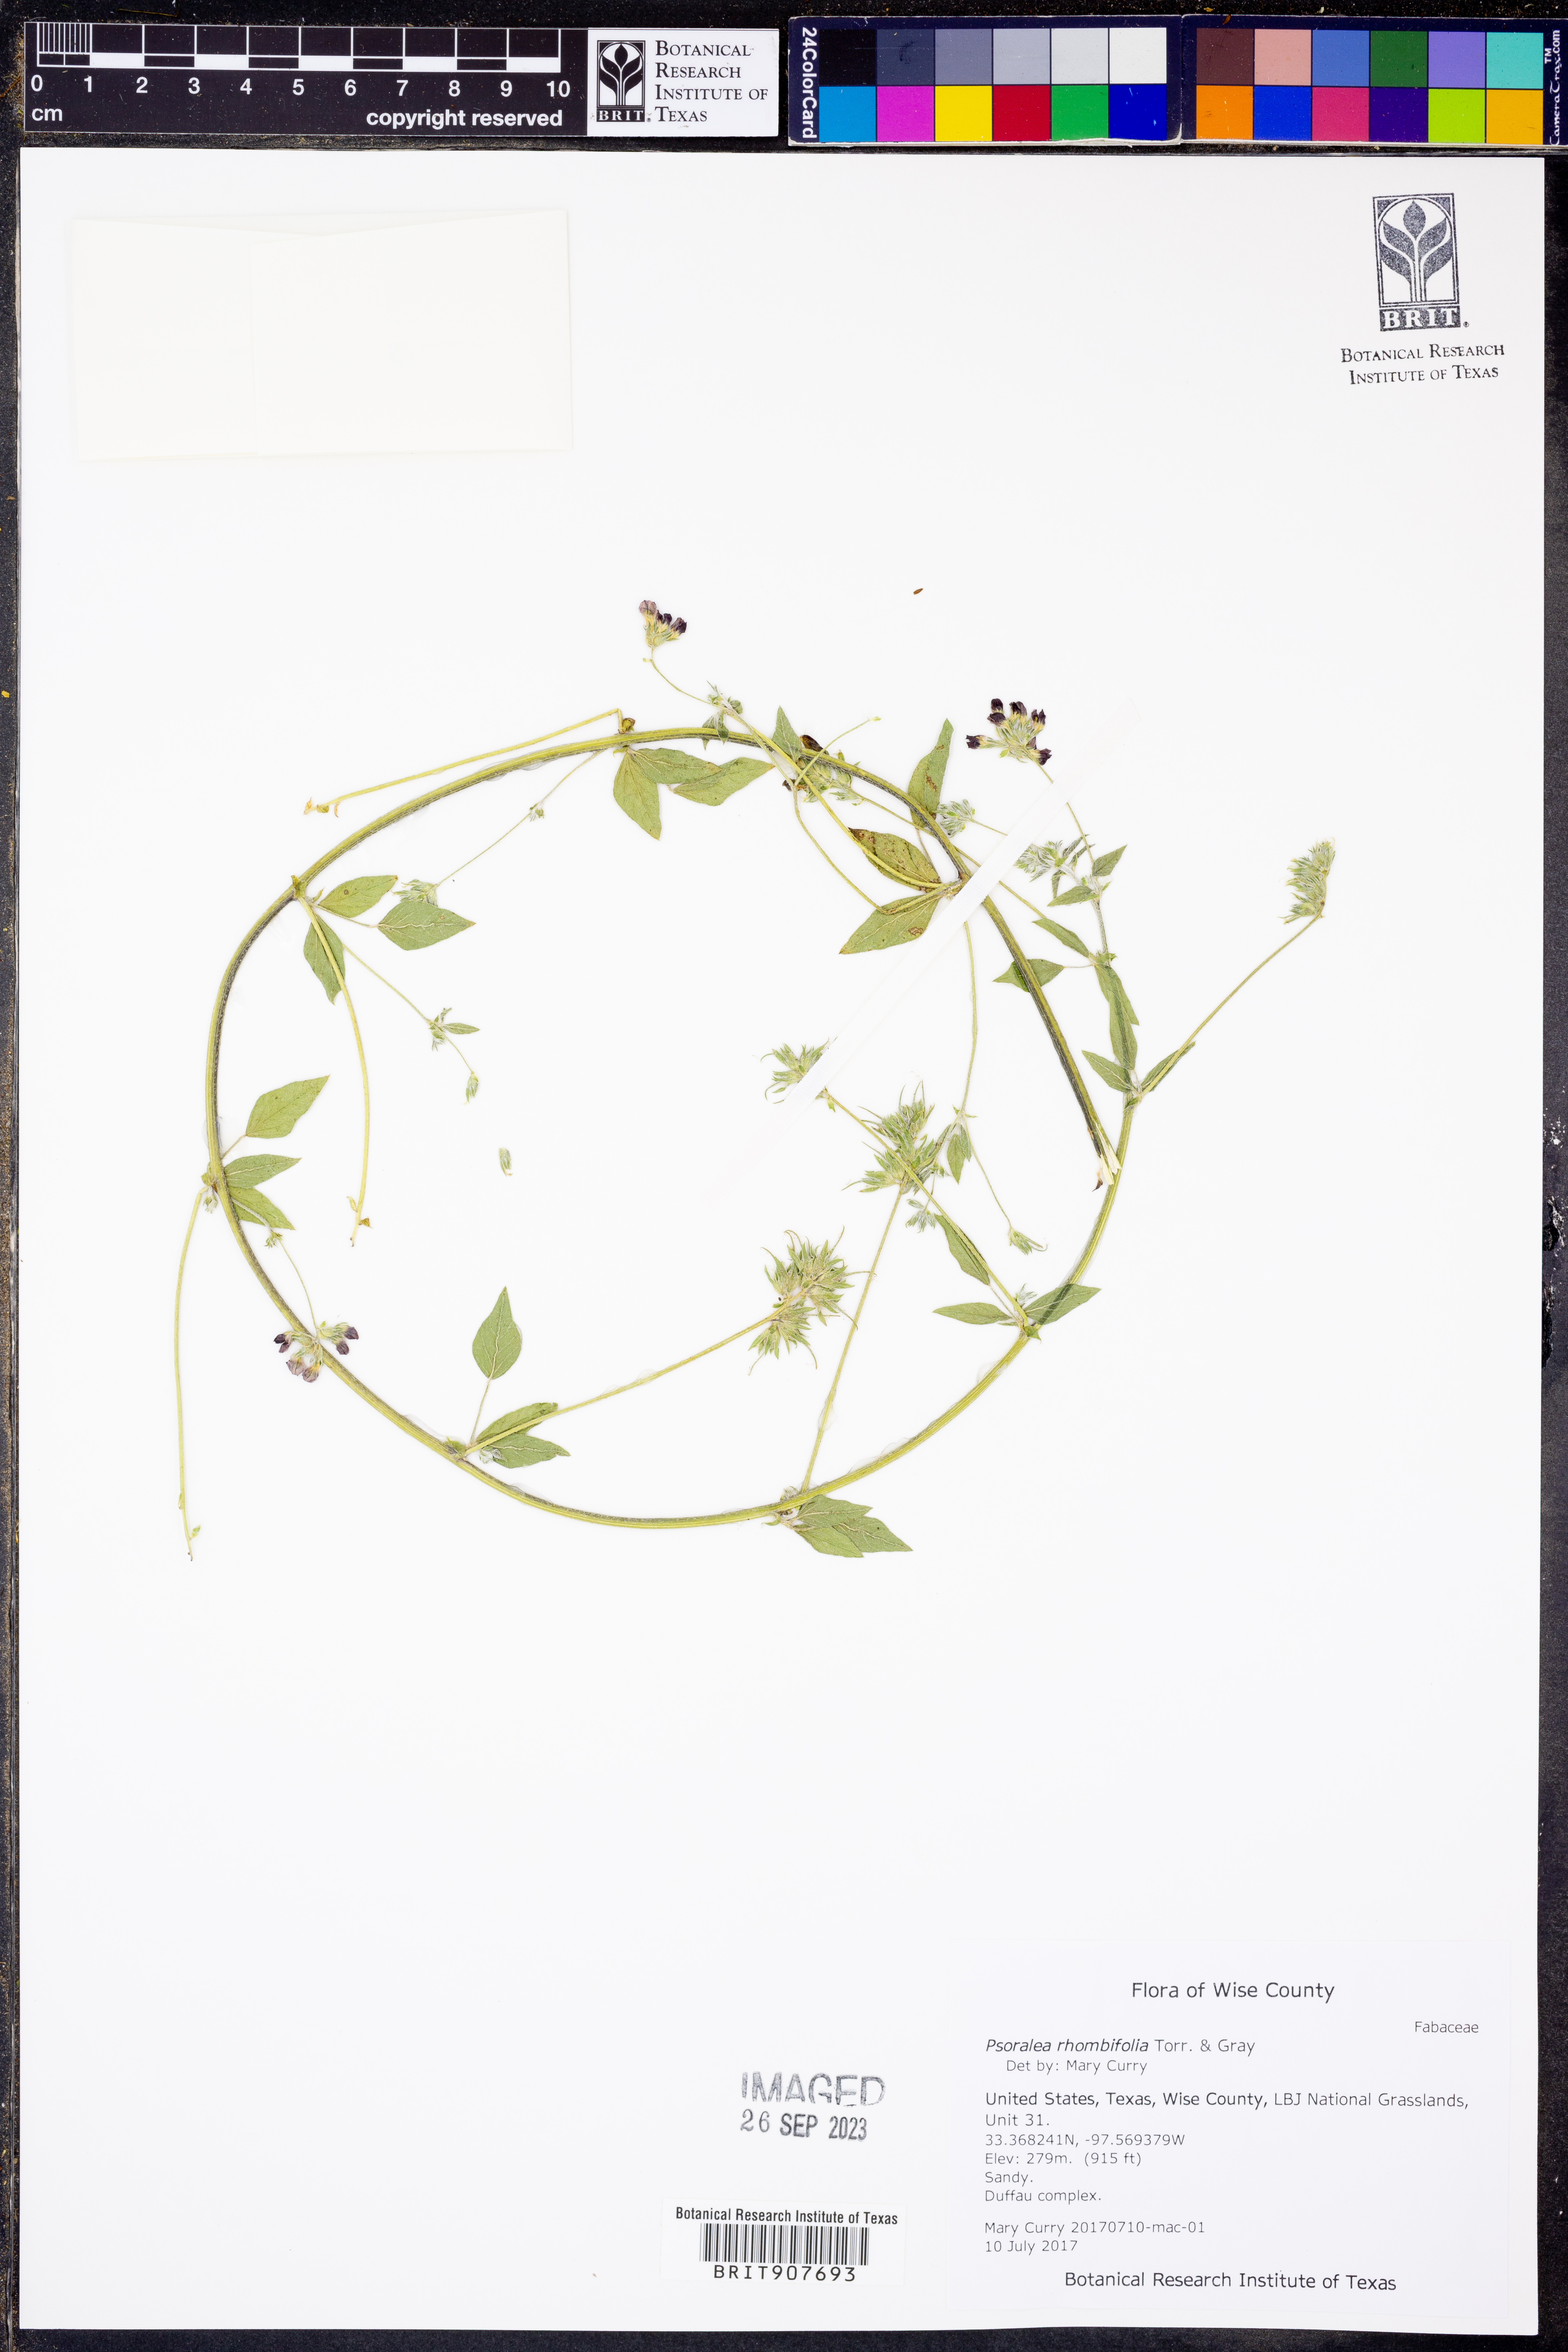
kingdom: Plantae
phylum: Tracheophyta
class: Magnoliopsida
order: Fabales
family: Fabaceae
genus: Pediomelum
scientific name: Pediomelum rhombifolium
